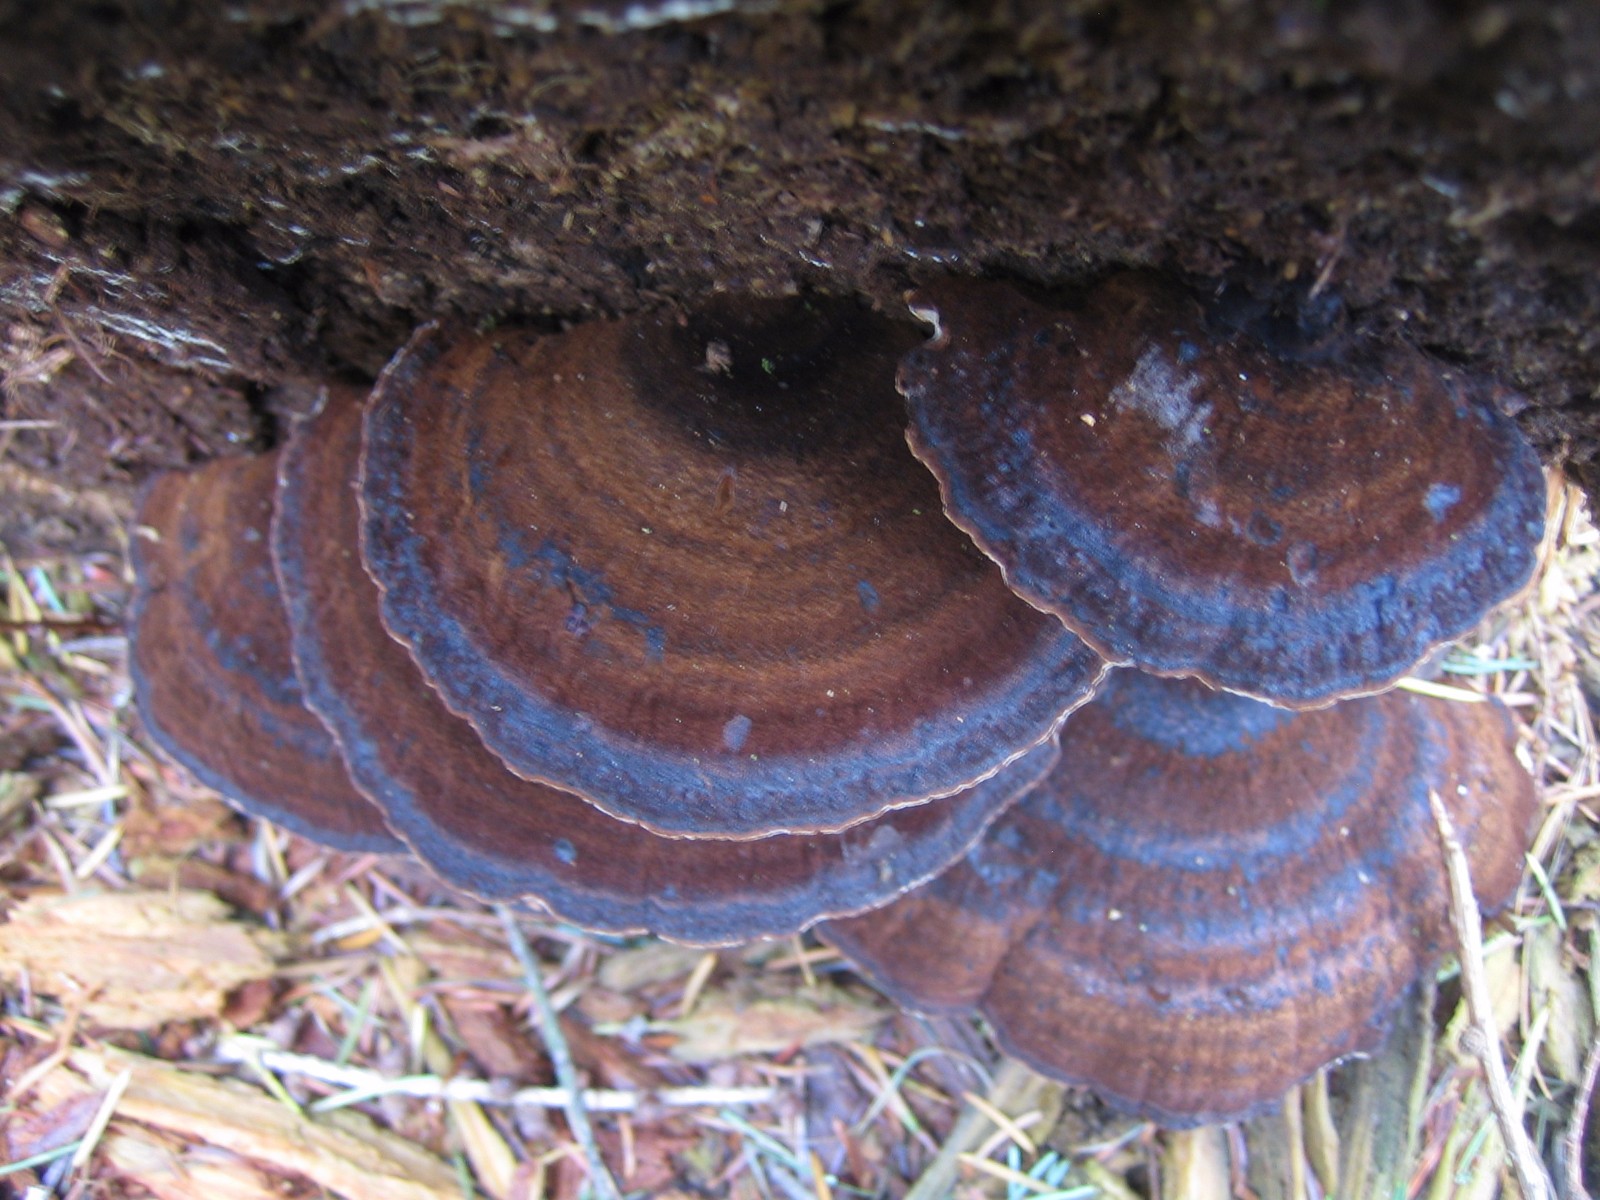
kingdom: Fungi
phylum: Basidiomycota
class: Agaricomycetes
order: Polyporales
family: Ischnodermataceae
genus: Ischnoderma
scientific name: Ischnoderma benzoinum
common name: gran-tjæreporesvamp
